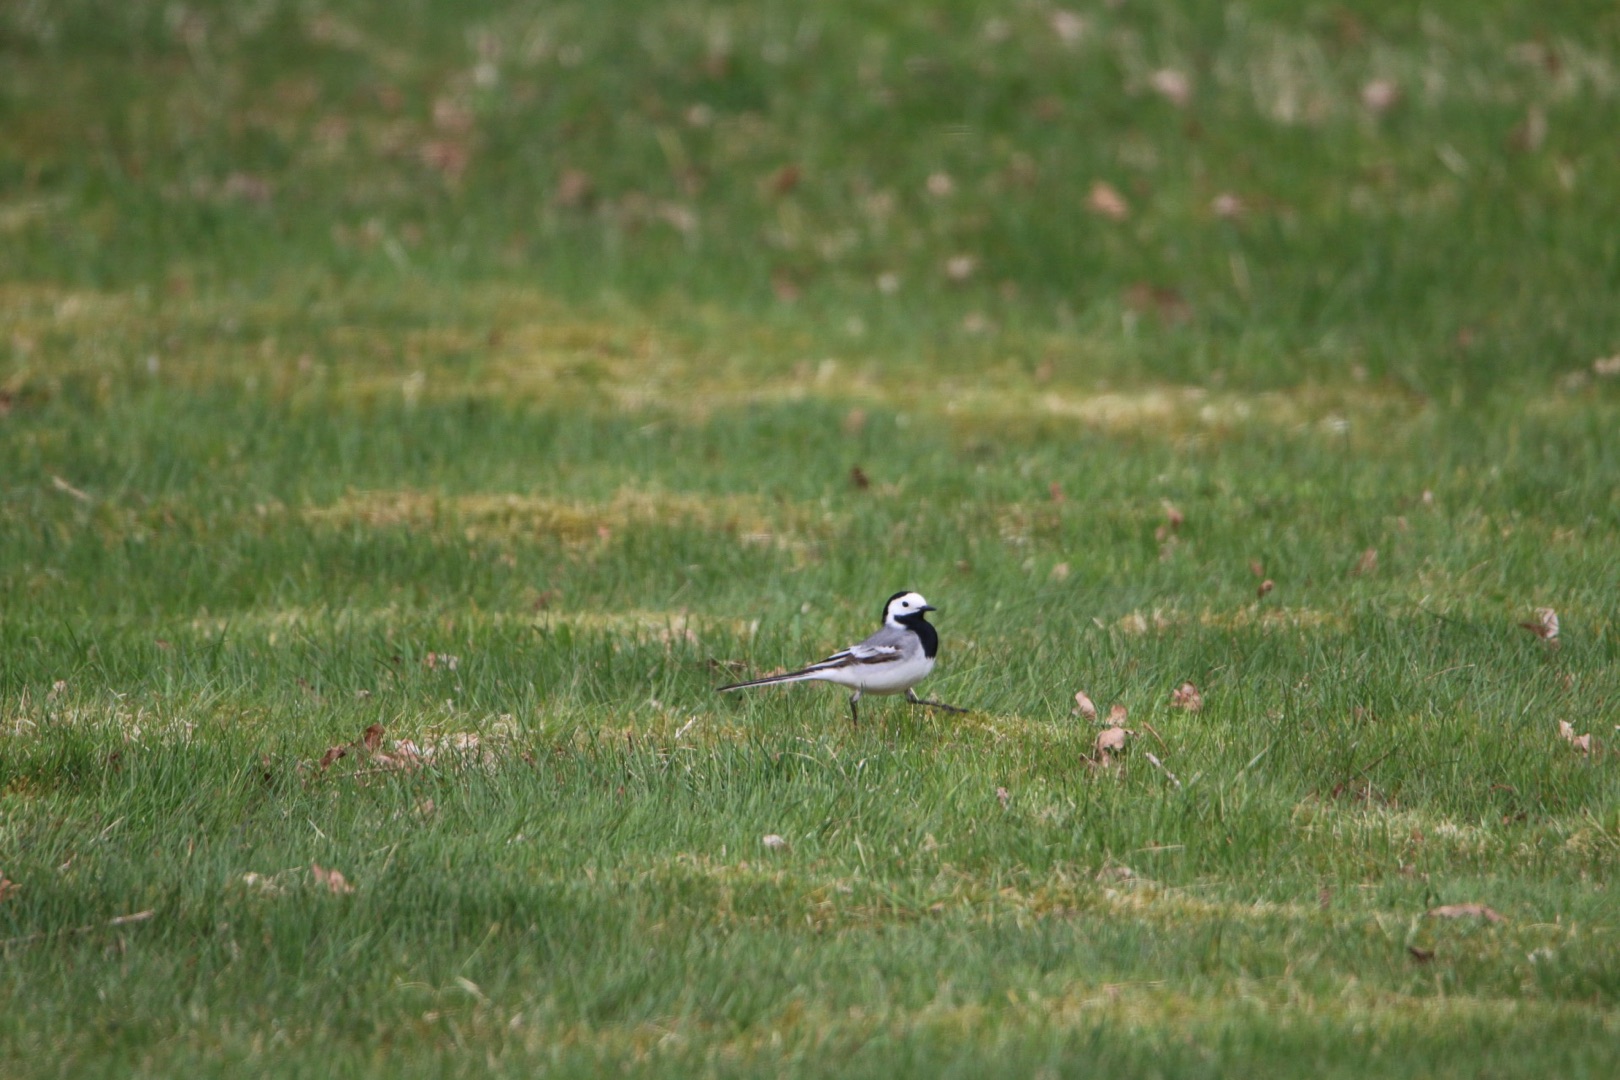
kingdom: Animalia
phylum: Chordata
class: Aves
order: Passeriformes
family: Motacillidae
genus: Motacilla
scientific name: Motacilla alba
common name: Hvid vipstjert
